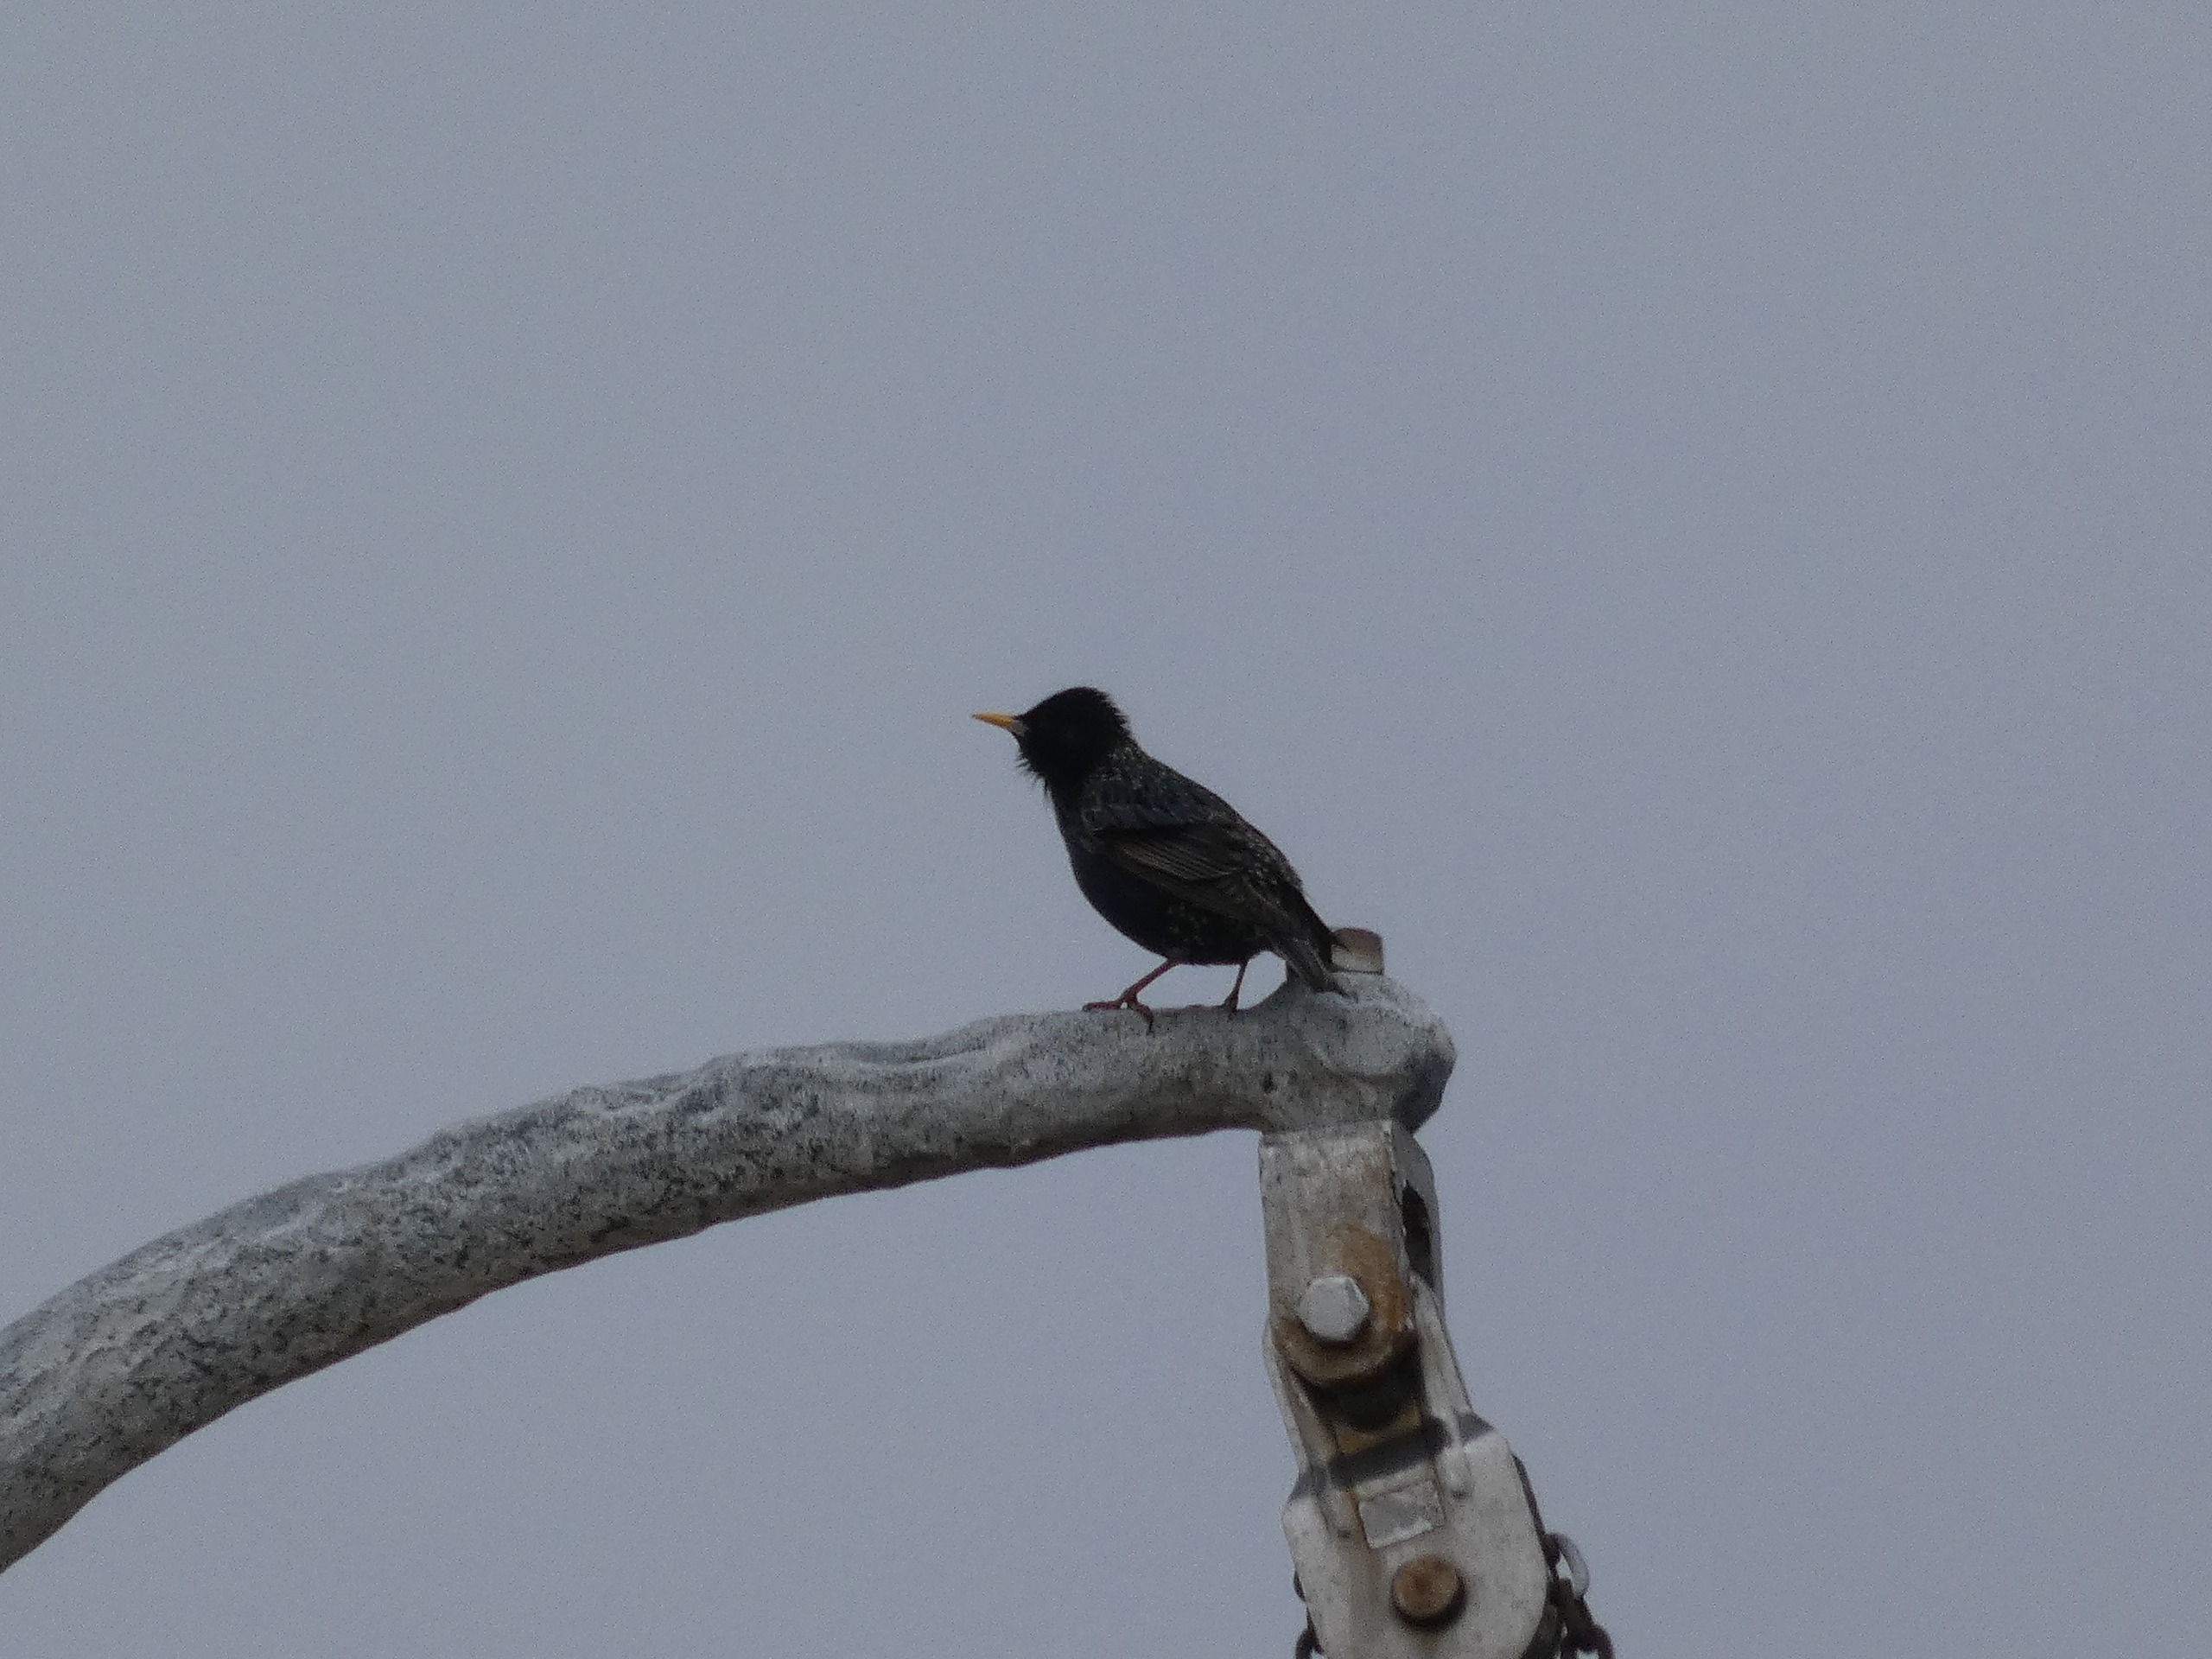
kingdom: Animalia
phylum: Chordata
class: Aves
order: Passeriformes
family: Sturnidae
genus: Sturnus
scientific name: Sturnus vulgaris
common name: Stær
